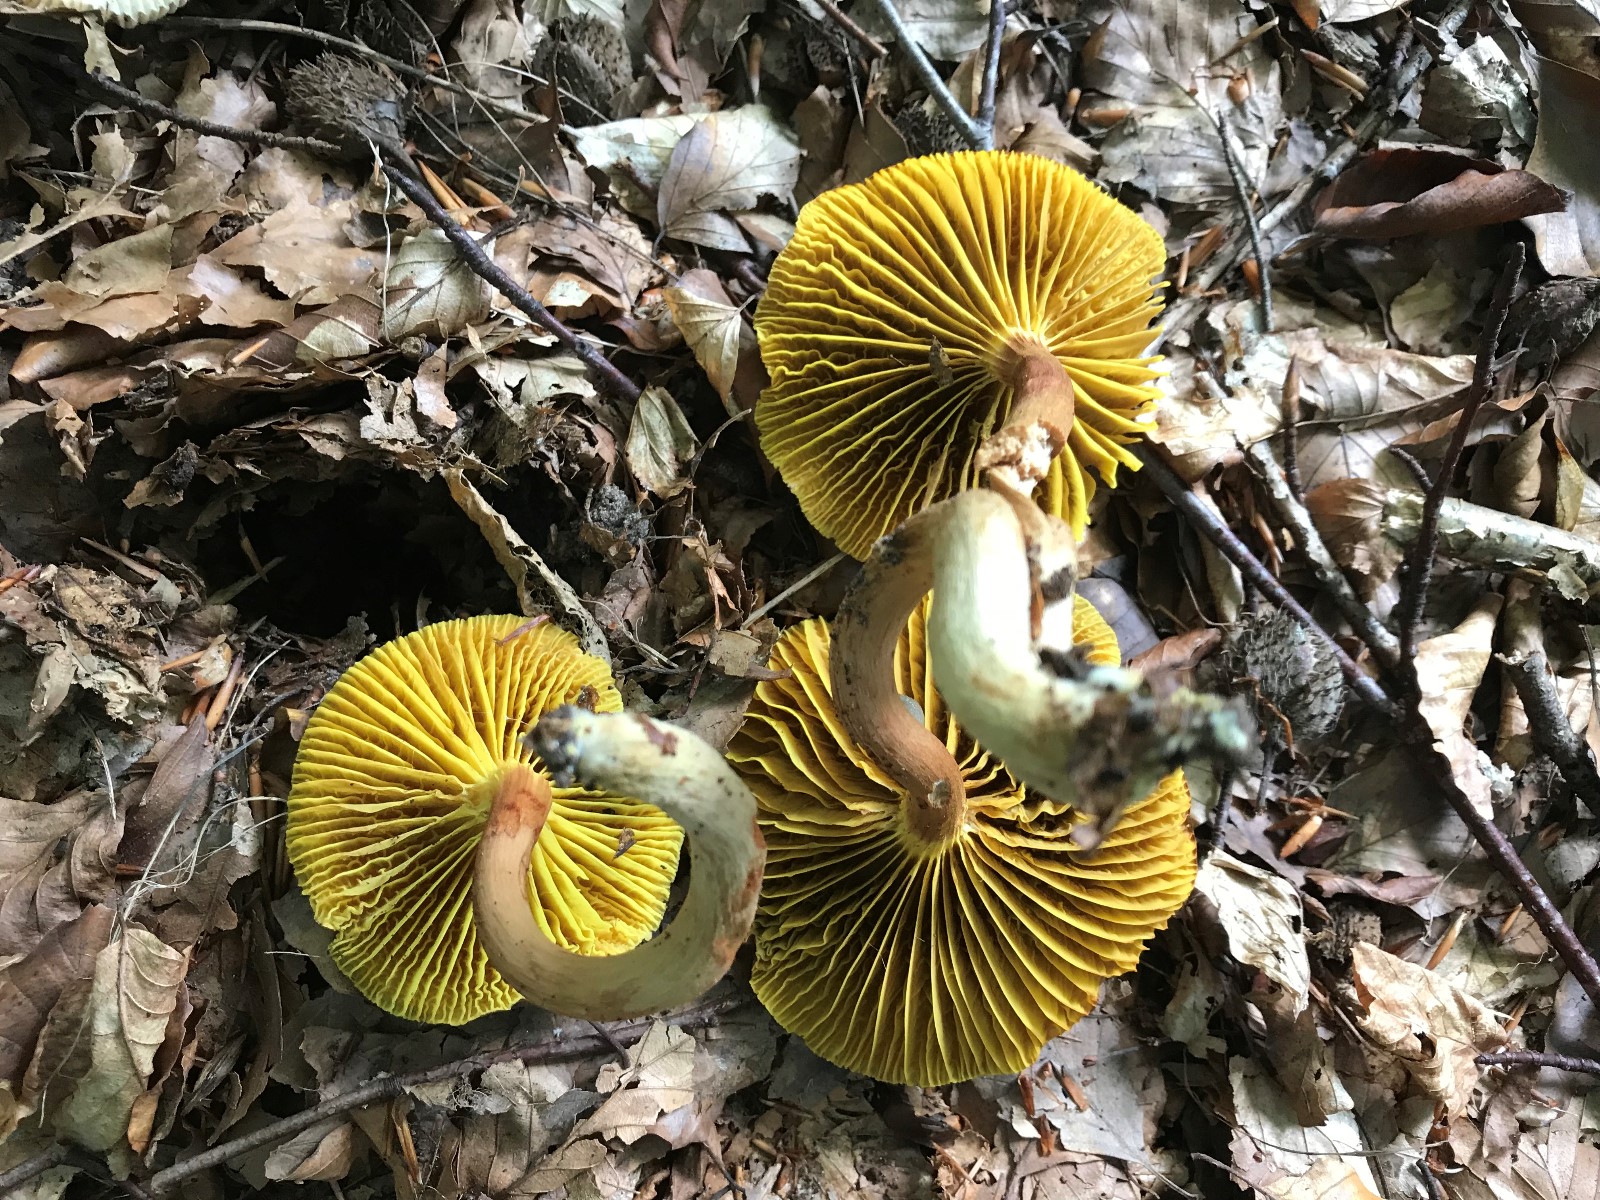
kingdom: Fungi
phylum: Basidiomycota
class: Agaricomycetes
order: Boletales
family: Boletaceae
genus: Phylloporus
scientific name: Phylloporus pelletieri
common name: lamelrørhat
